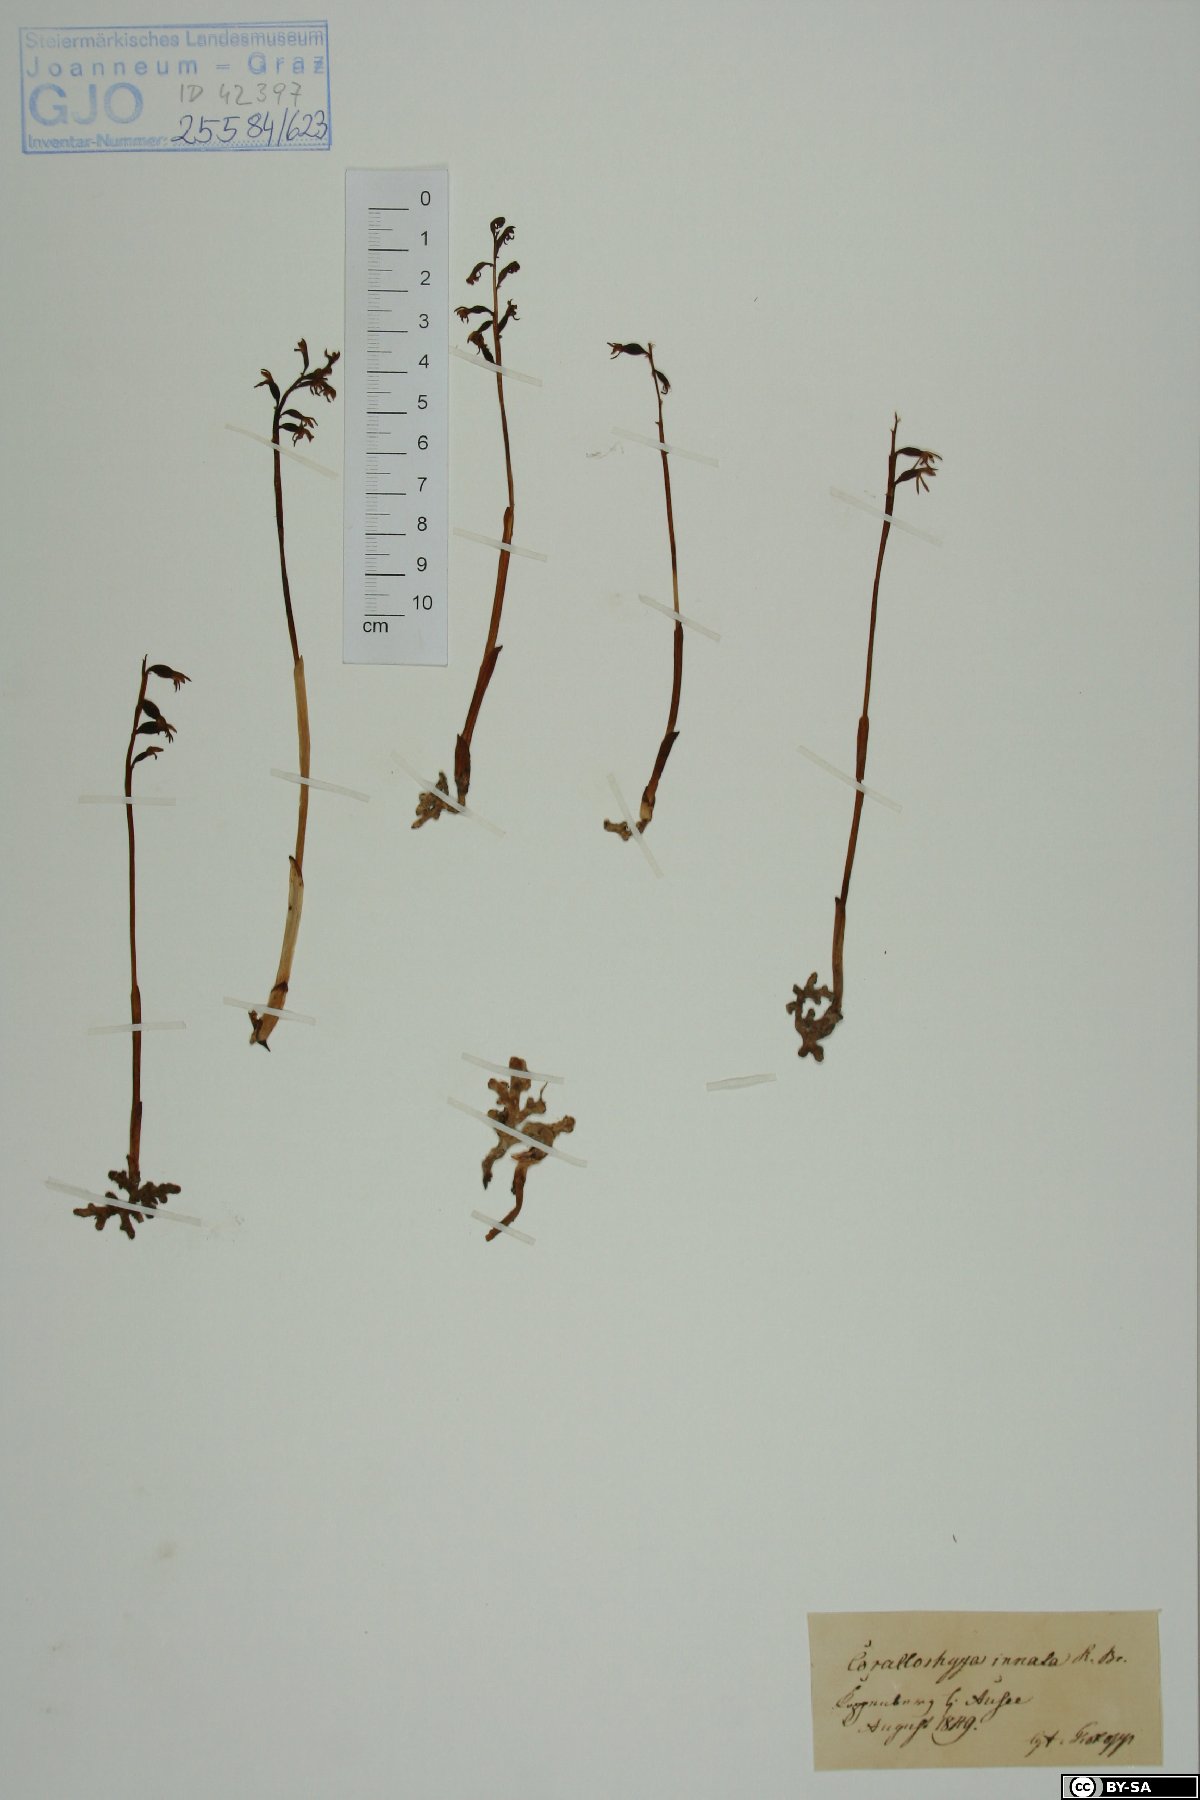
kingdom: Plantae
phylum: Tracheophyta
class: Liliopsida
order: Asparagales
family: Orchidaceae
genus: Corallorhiza
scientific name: Corallorhiza trifida
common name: Yellow coralroot
